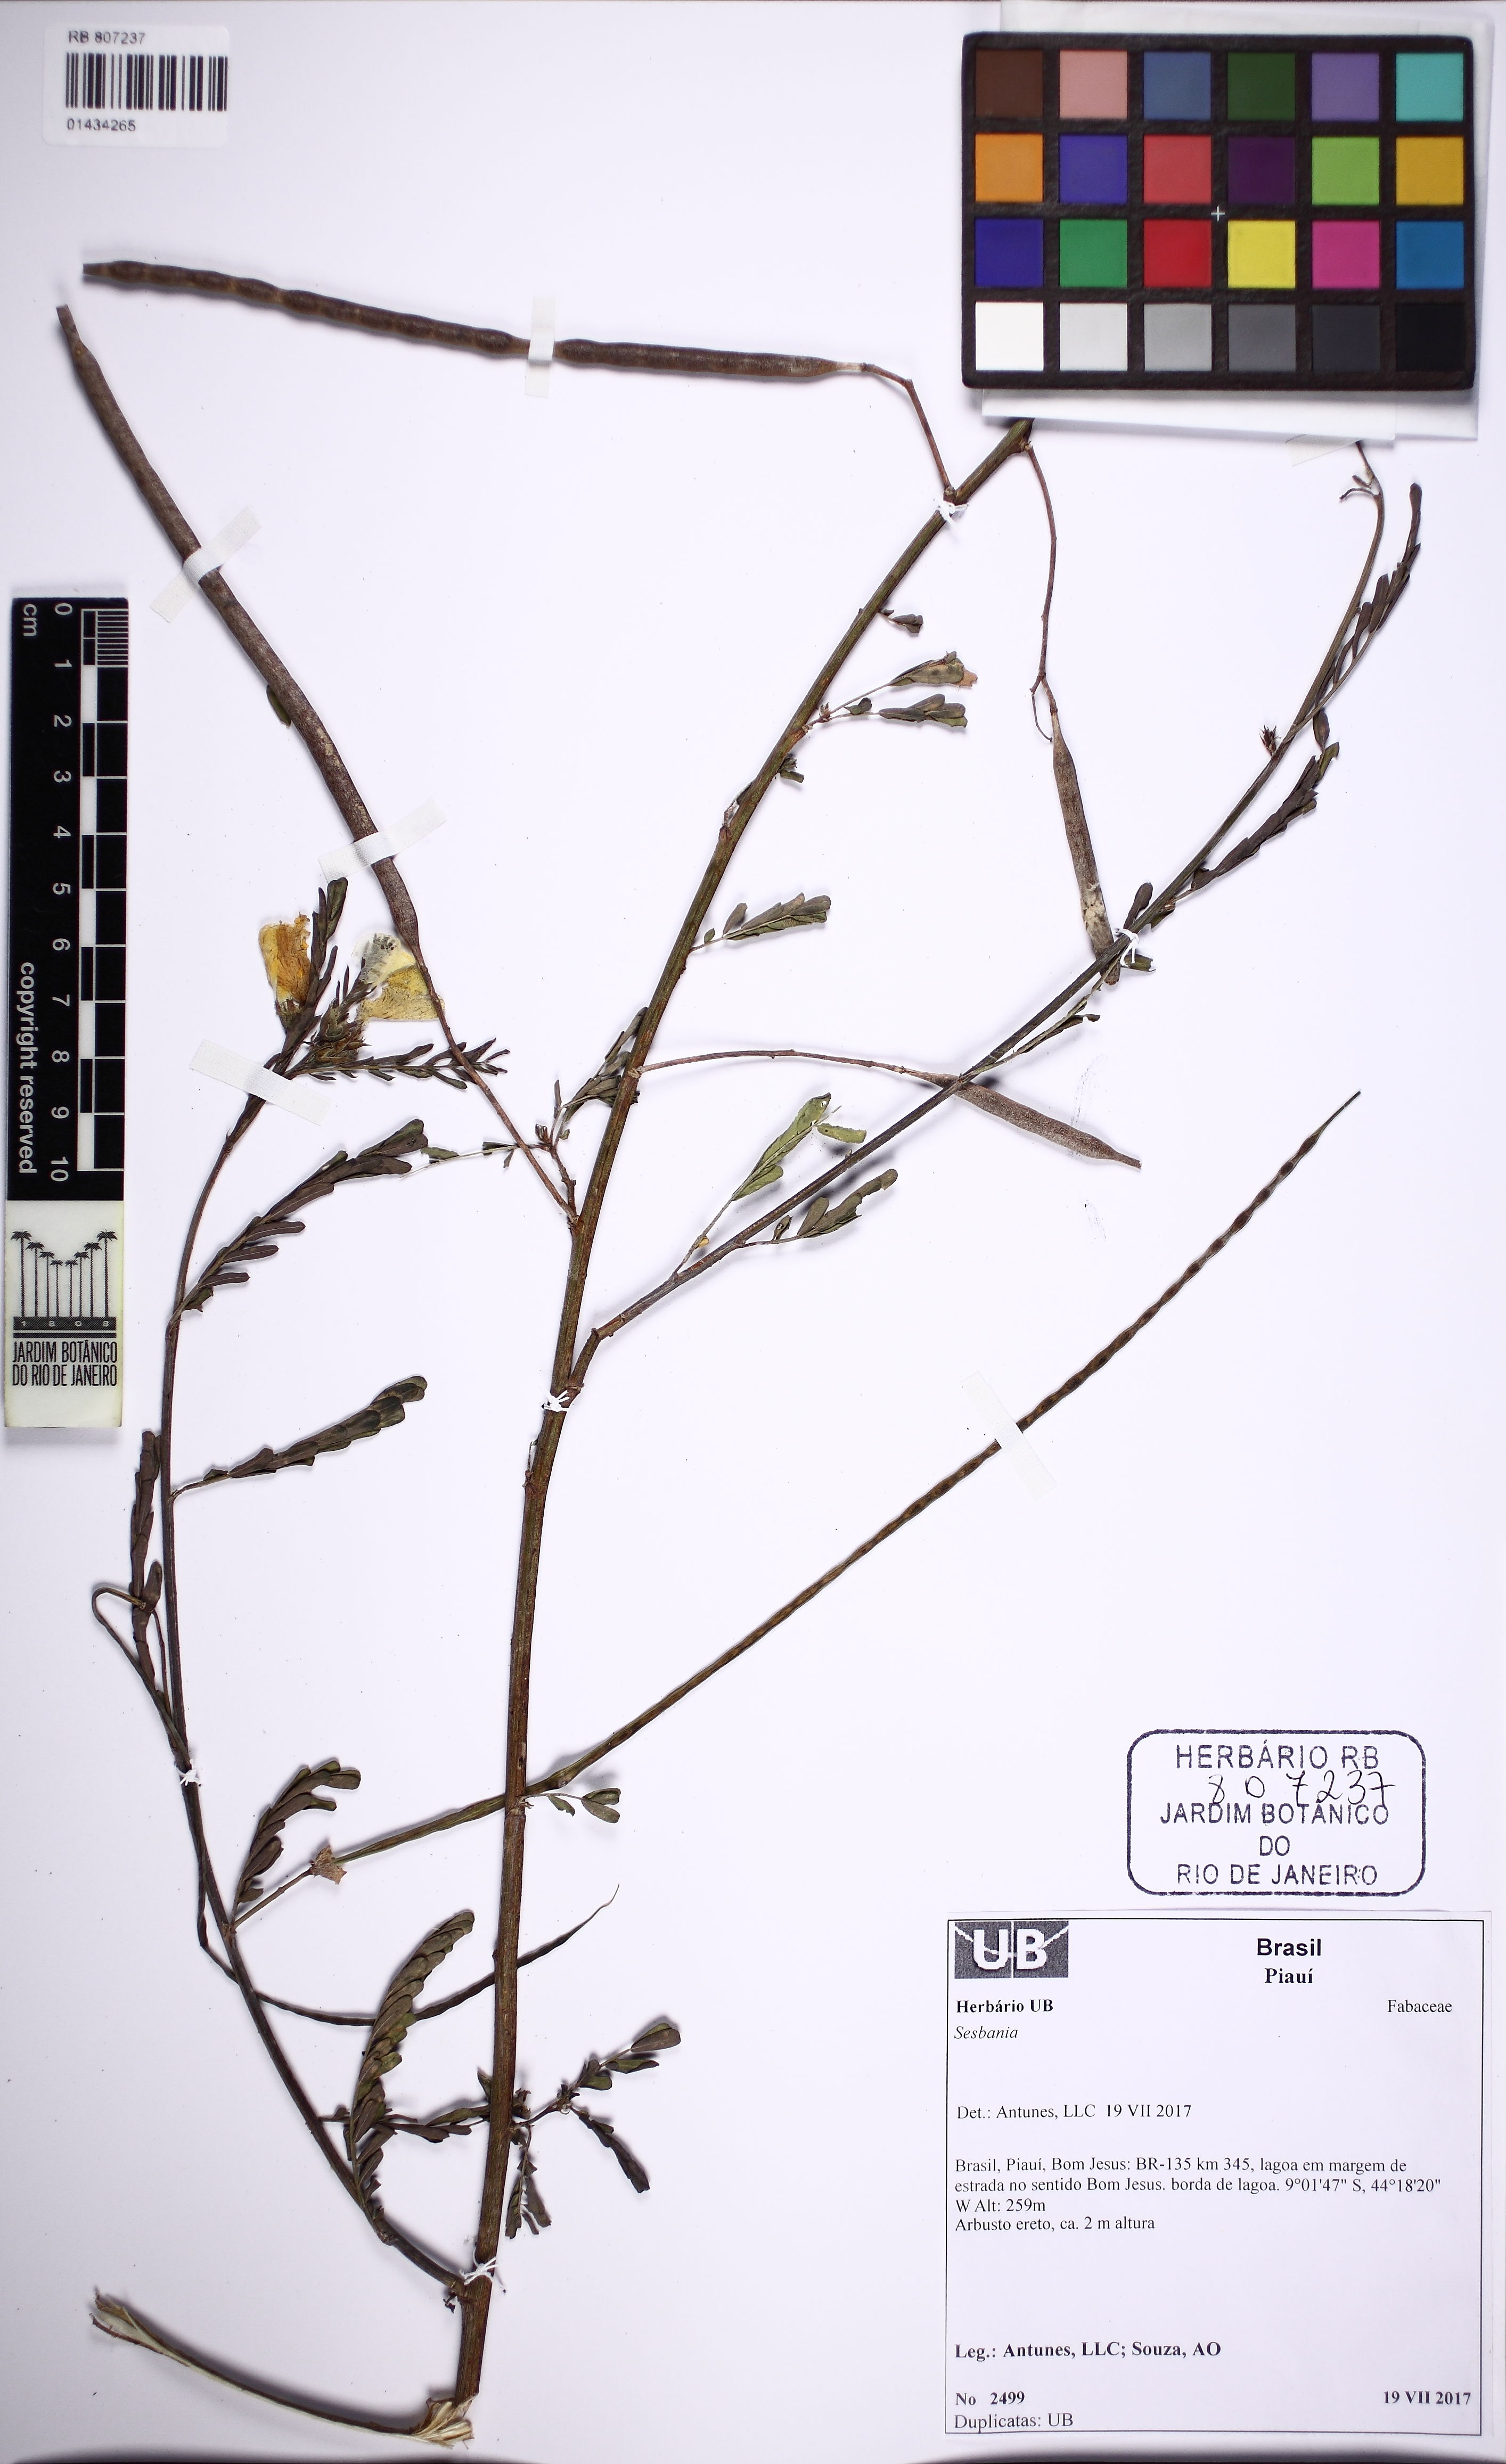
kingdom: Plantae
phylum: Tracheophyta
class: Magnoliopsida
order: Fabales
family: Fabaceae
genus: Sesbania
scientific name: Sesbania
